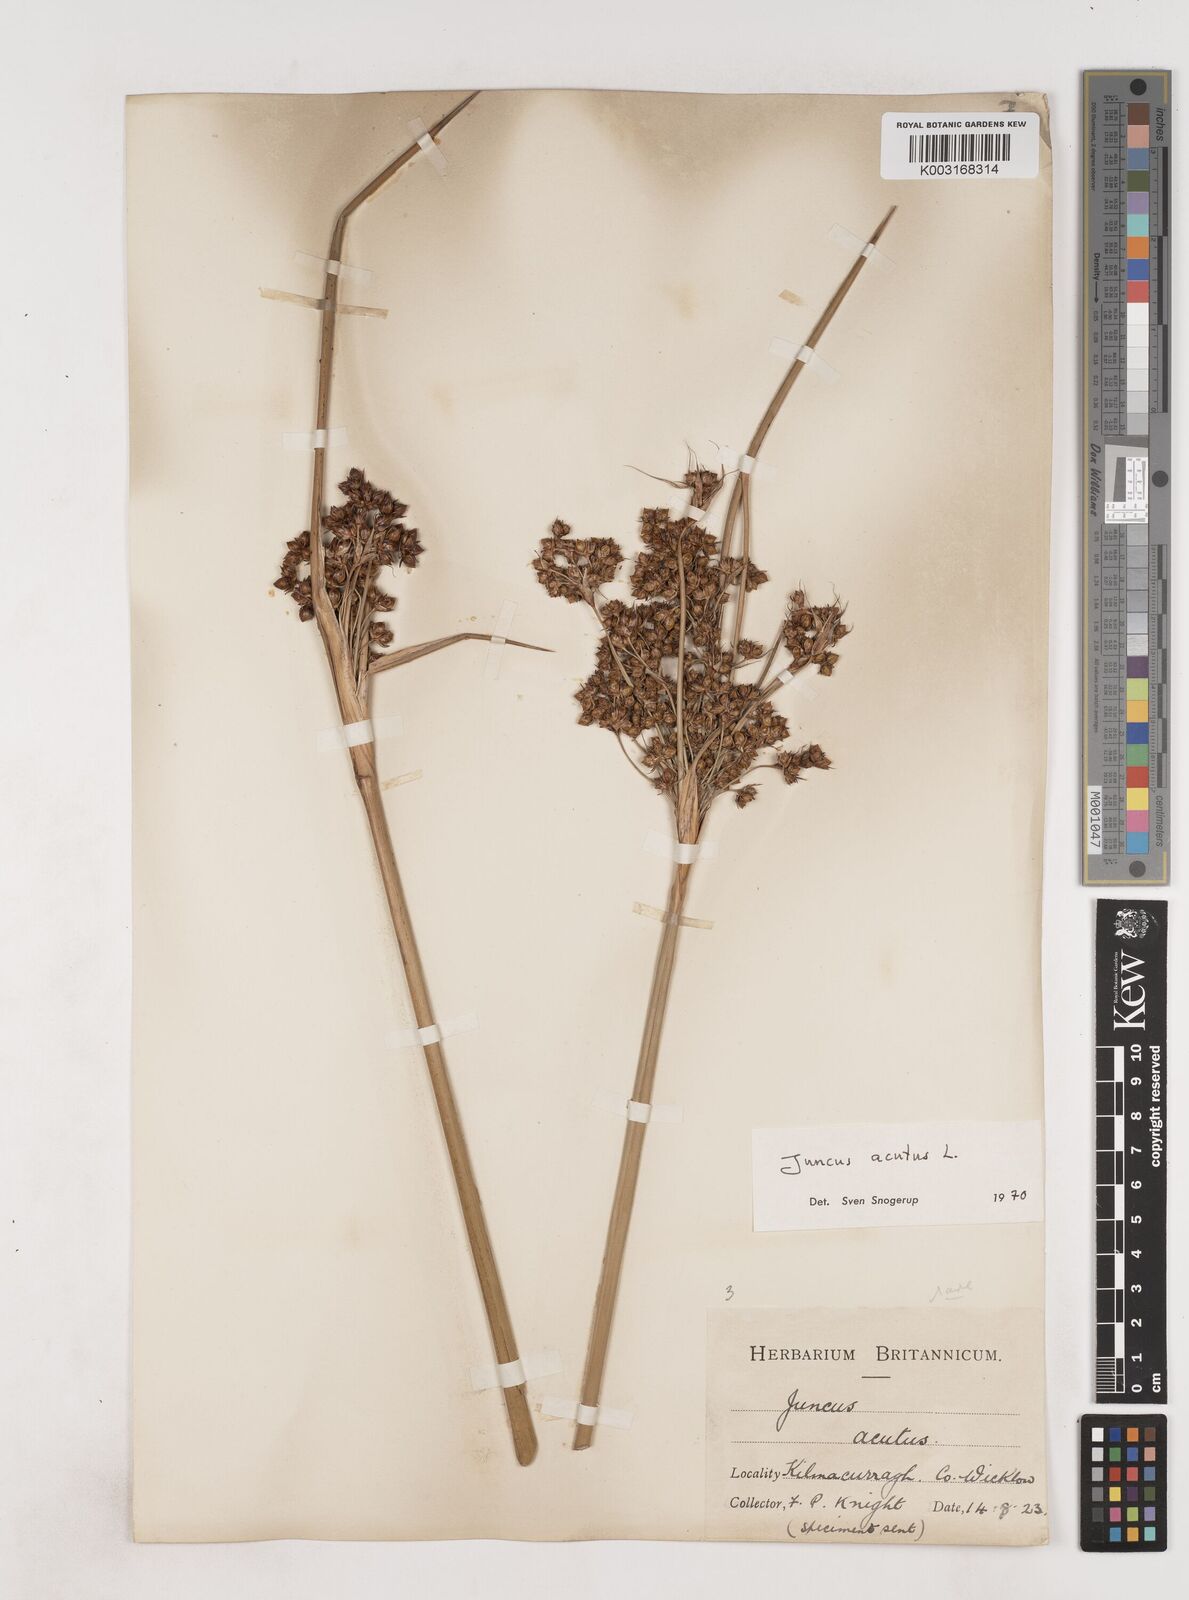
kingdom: Plantae
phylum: Tracheophyta
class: Liliopsida
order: Poales
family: Juncaceae
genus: Juncus
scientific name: Juncus acutus
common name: Sharp rush
